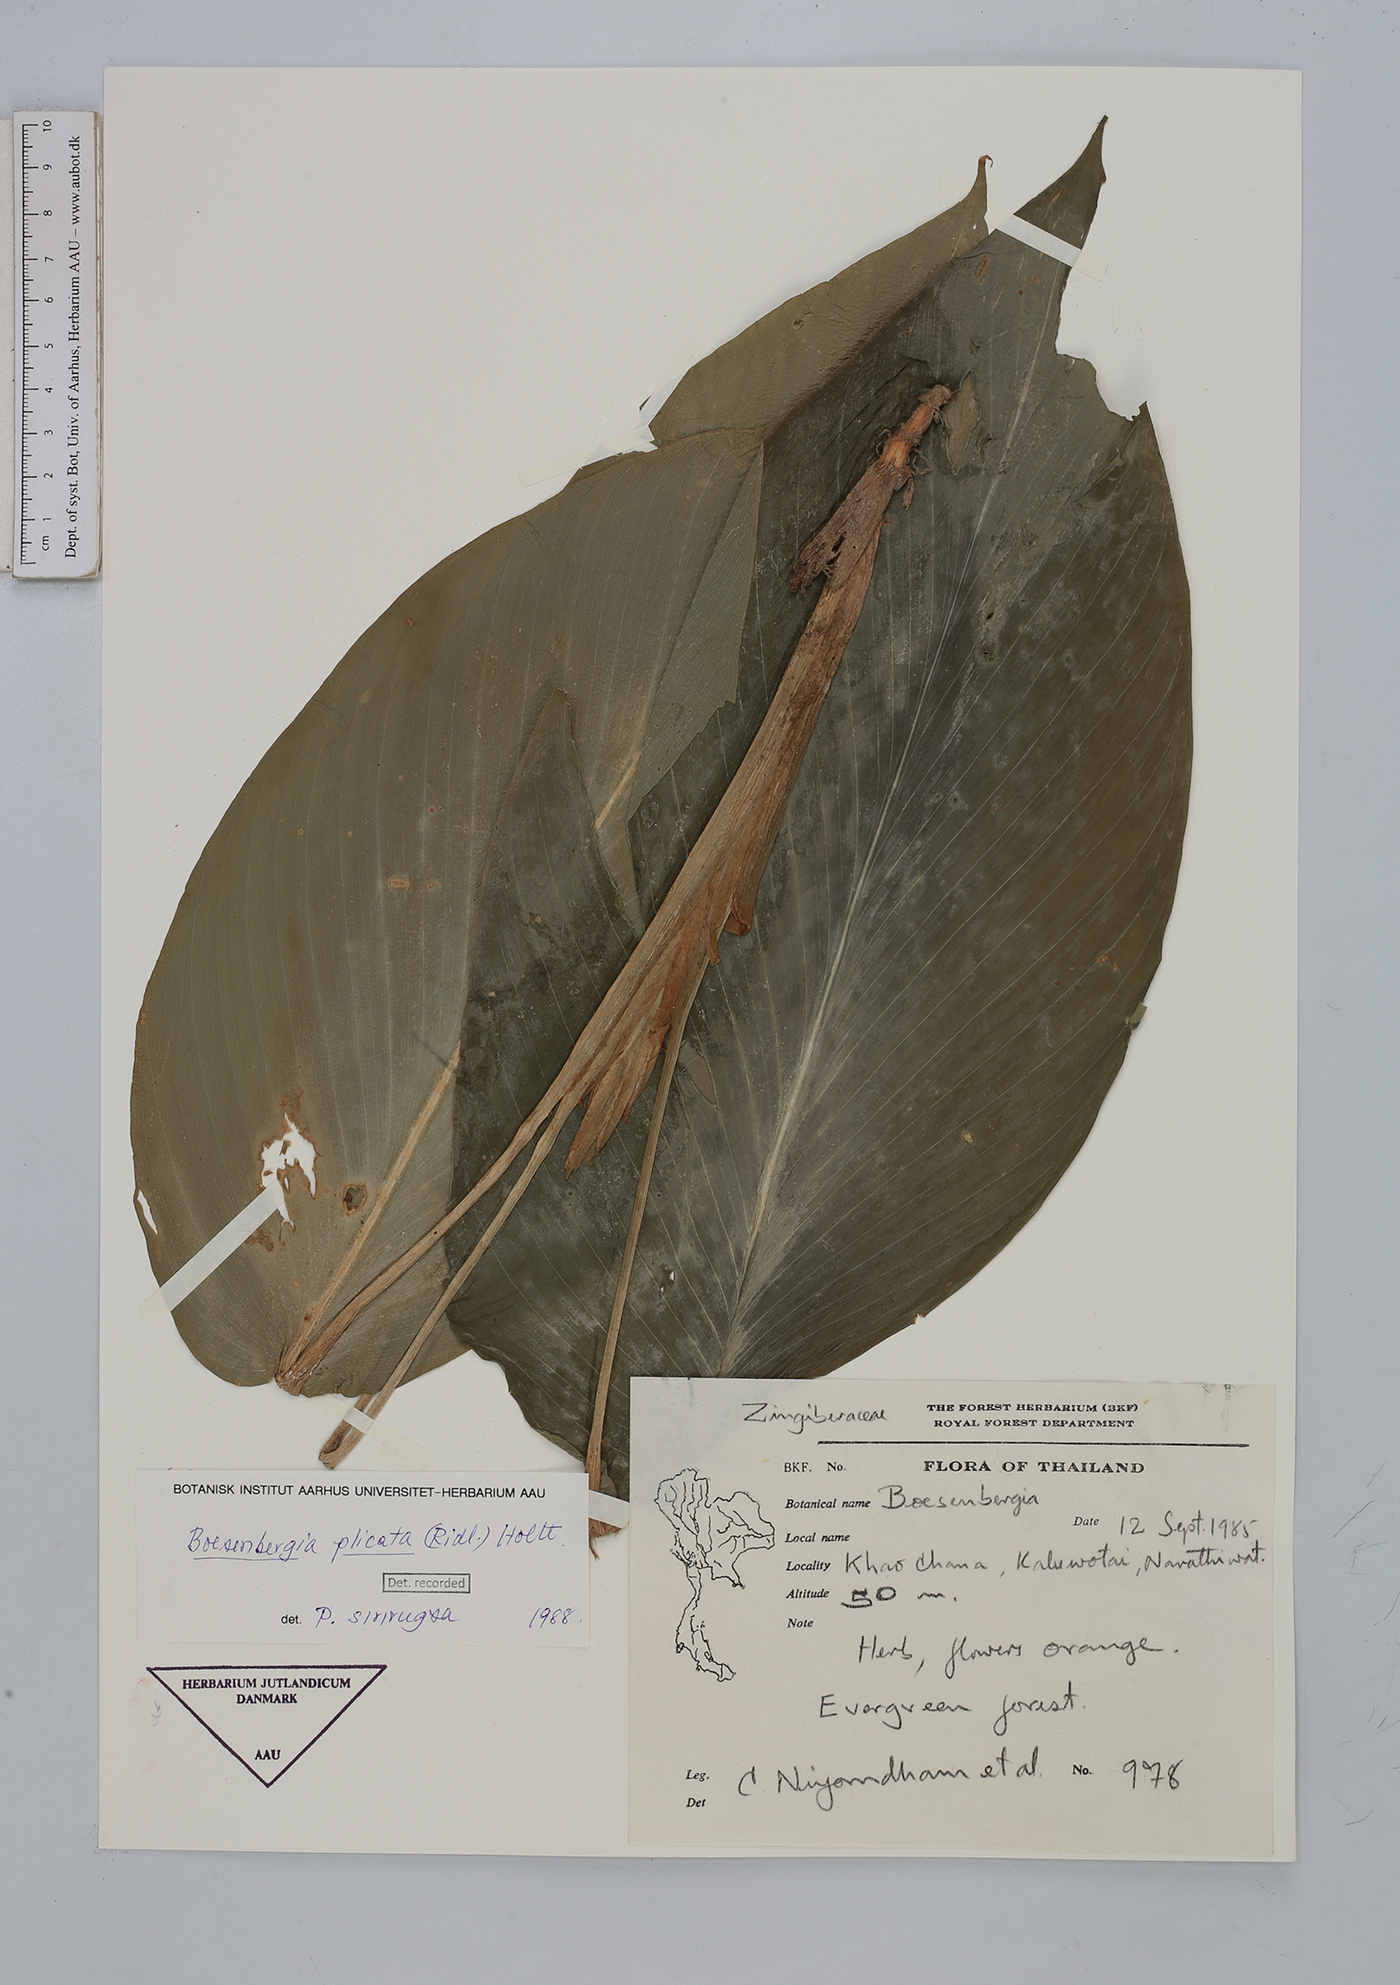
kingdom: Plantae
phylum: Tracheophyta
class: Liliopsida
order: Zingiberales
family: Zingiberaceae
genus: Boesenbergia
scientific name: Boesenbergia plicata
